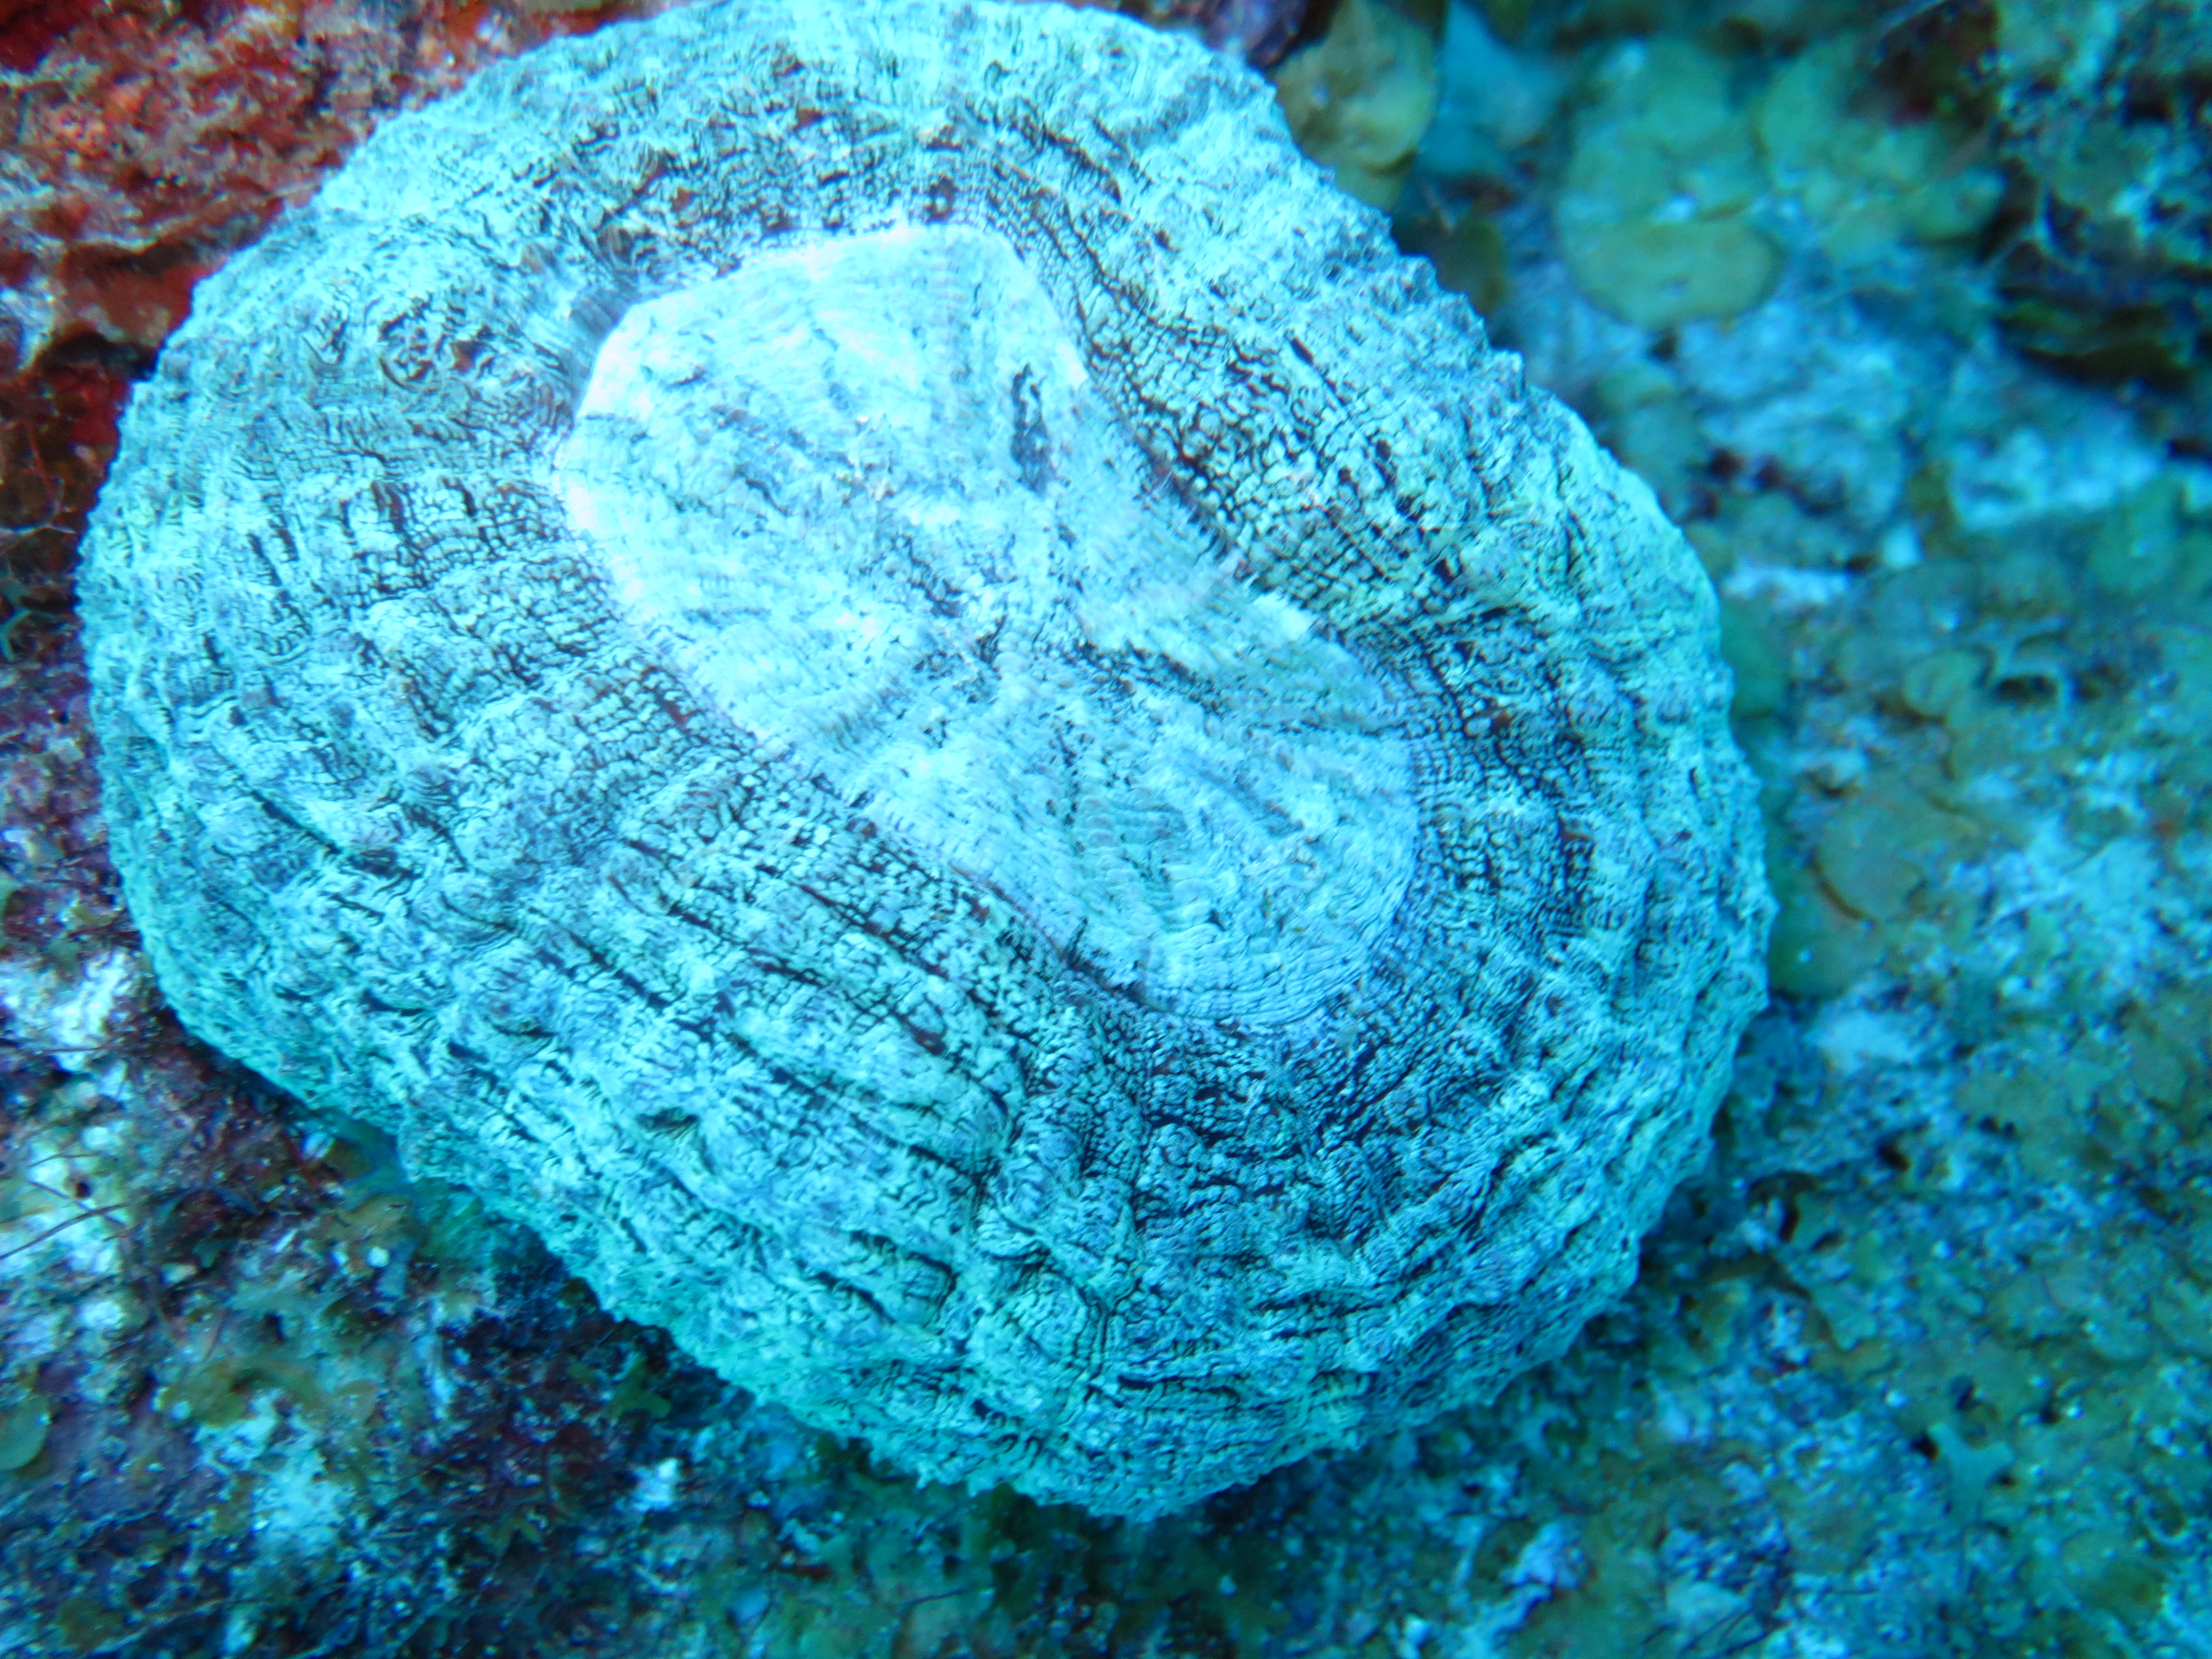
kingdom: Animalia
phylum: Cnidaria
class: Anthozoa
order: Scleractinia
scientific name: Scleractinia
